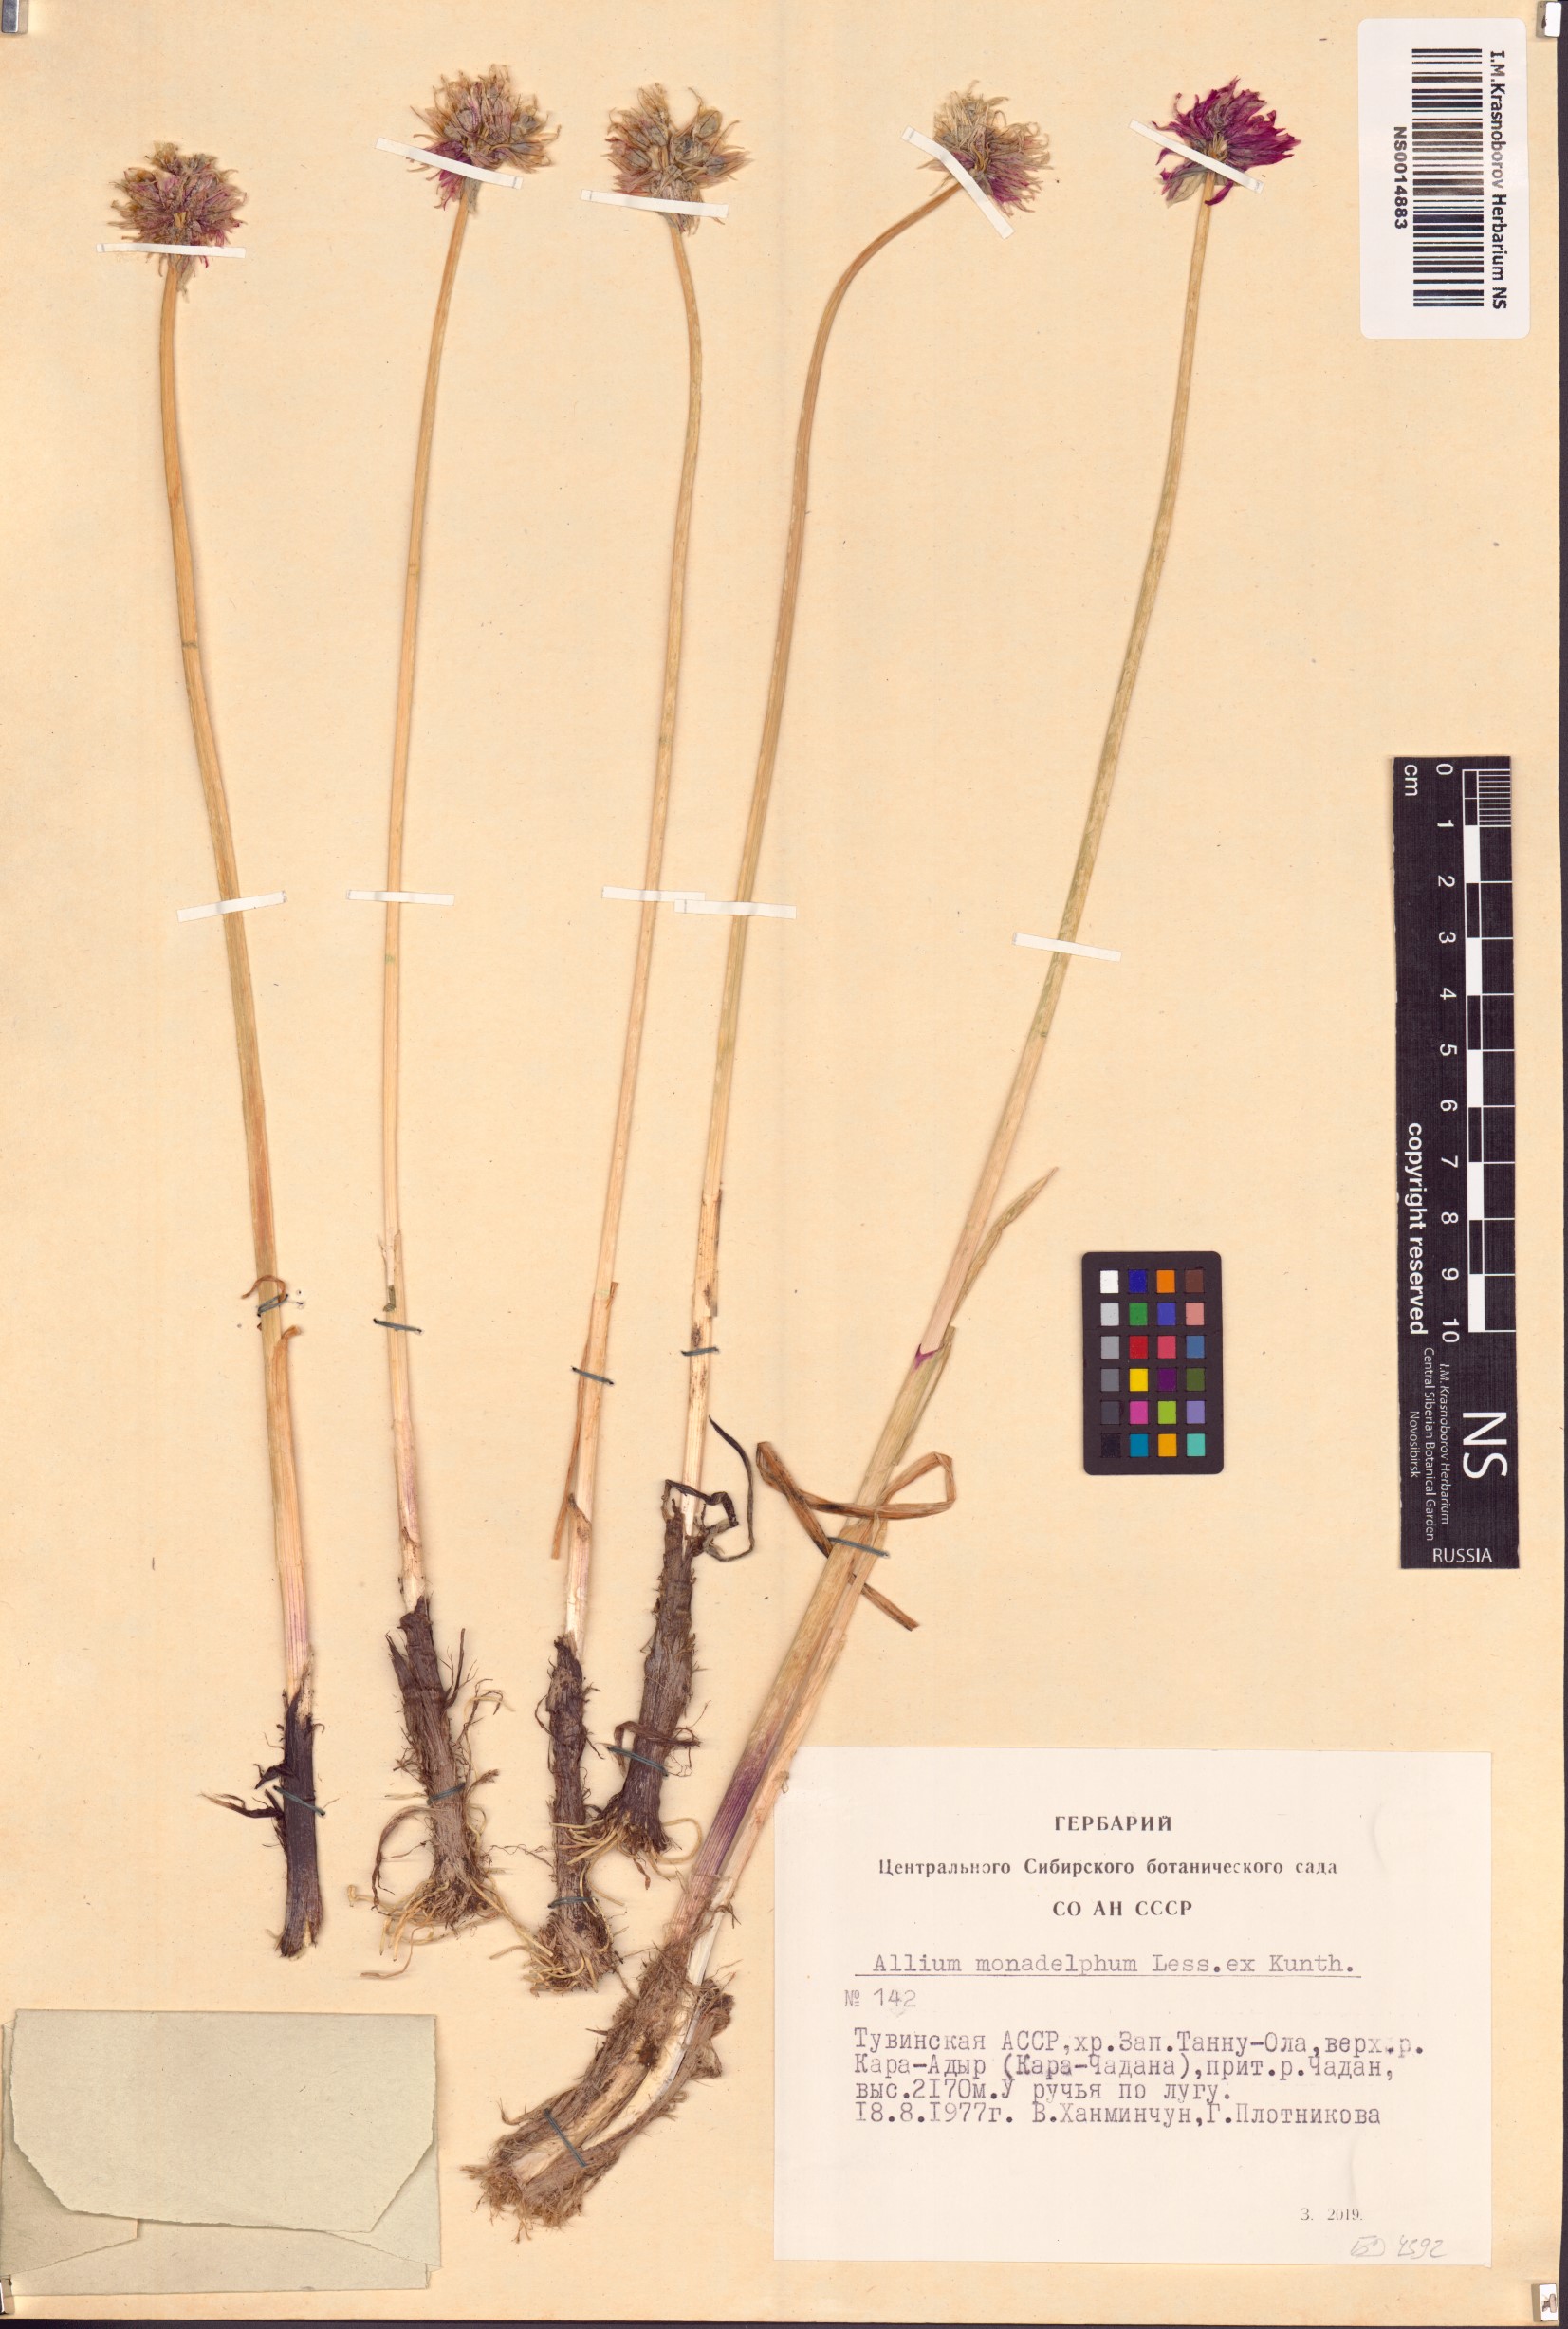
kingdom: Plantae
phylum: Tracheophyta
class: Liliopsida
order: Asparagales
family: Amaryllidaceae
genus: Allium
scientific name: Allium atrosanguineum
